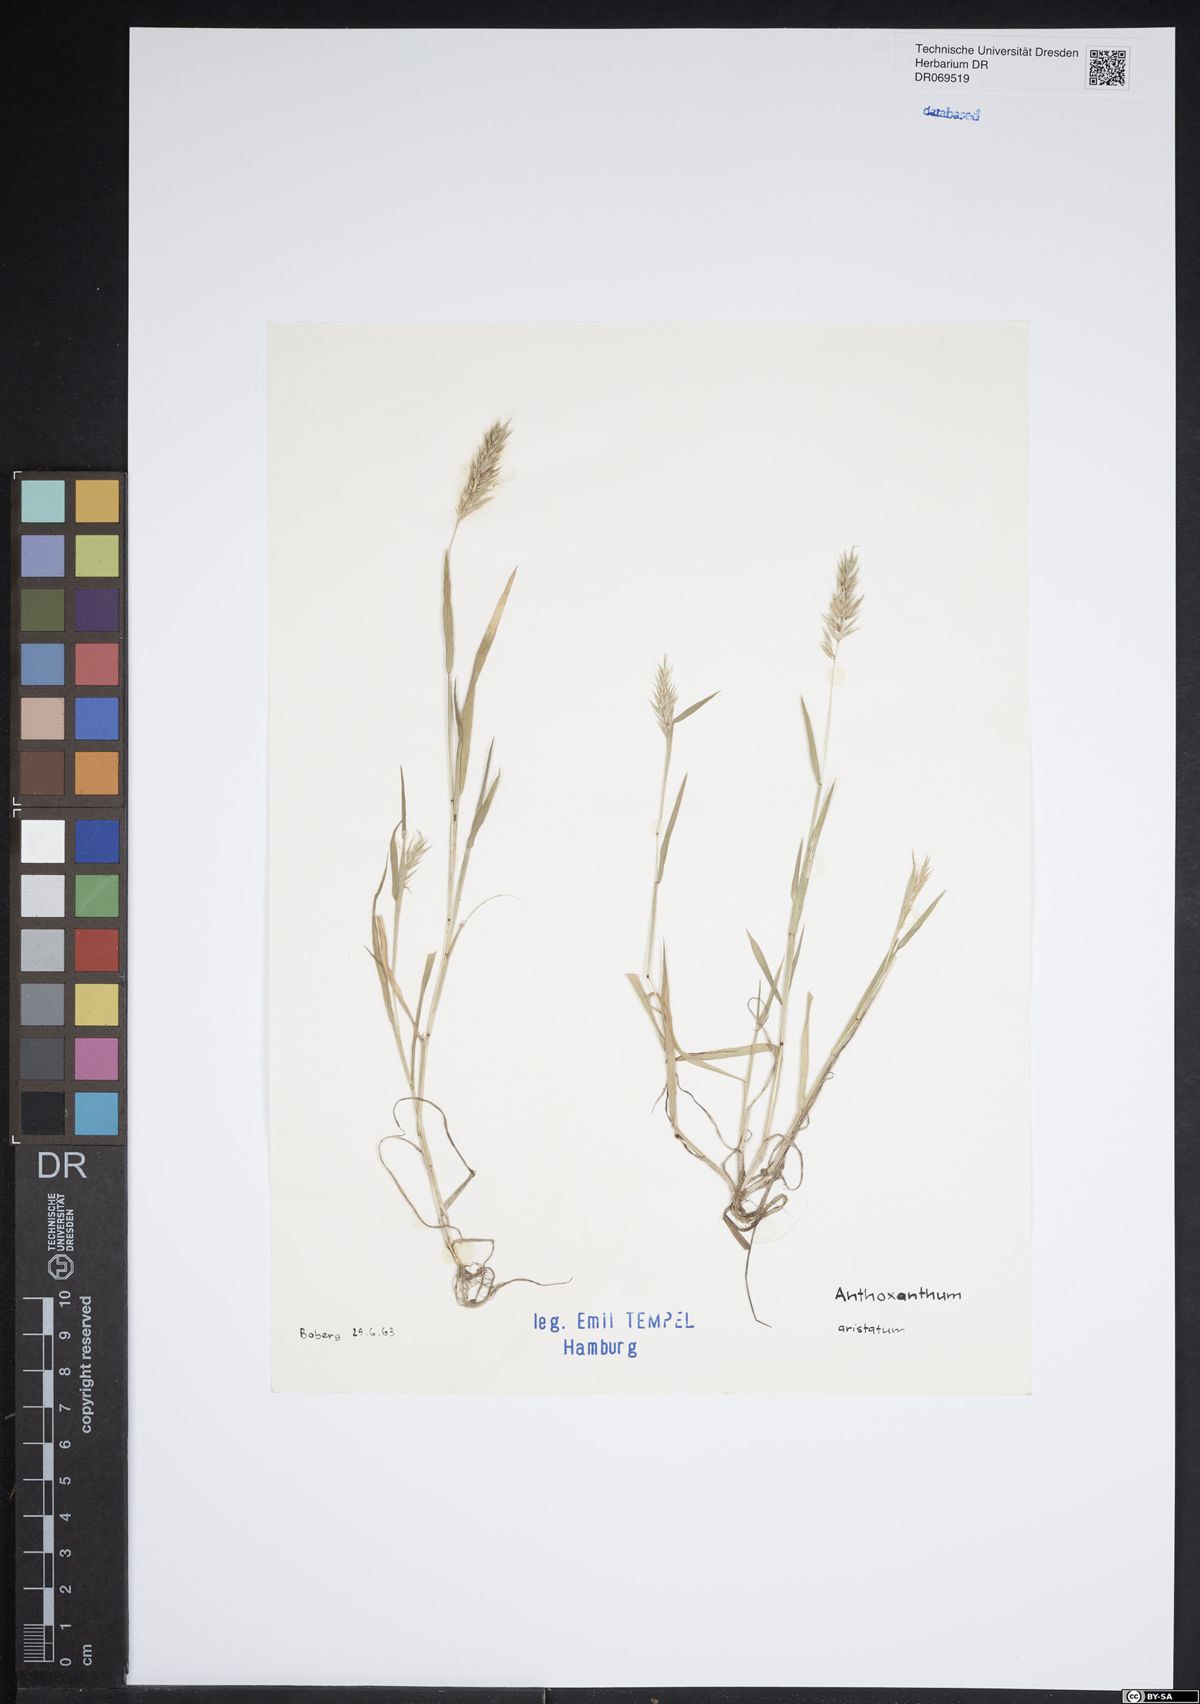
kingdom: Plantae
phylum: Tracheophyta
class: Liliopsida
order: Poales
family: Poaceae
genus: Anthoxanthum
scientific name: Anthoxanthum aristatum
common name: Annual vernal-grass
